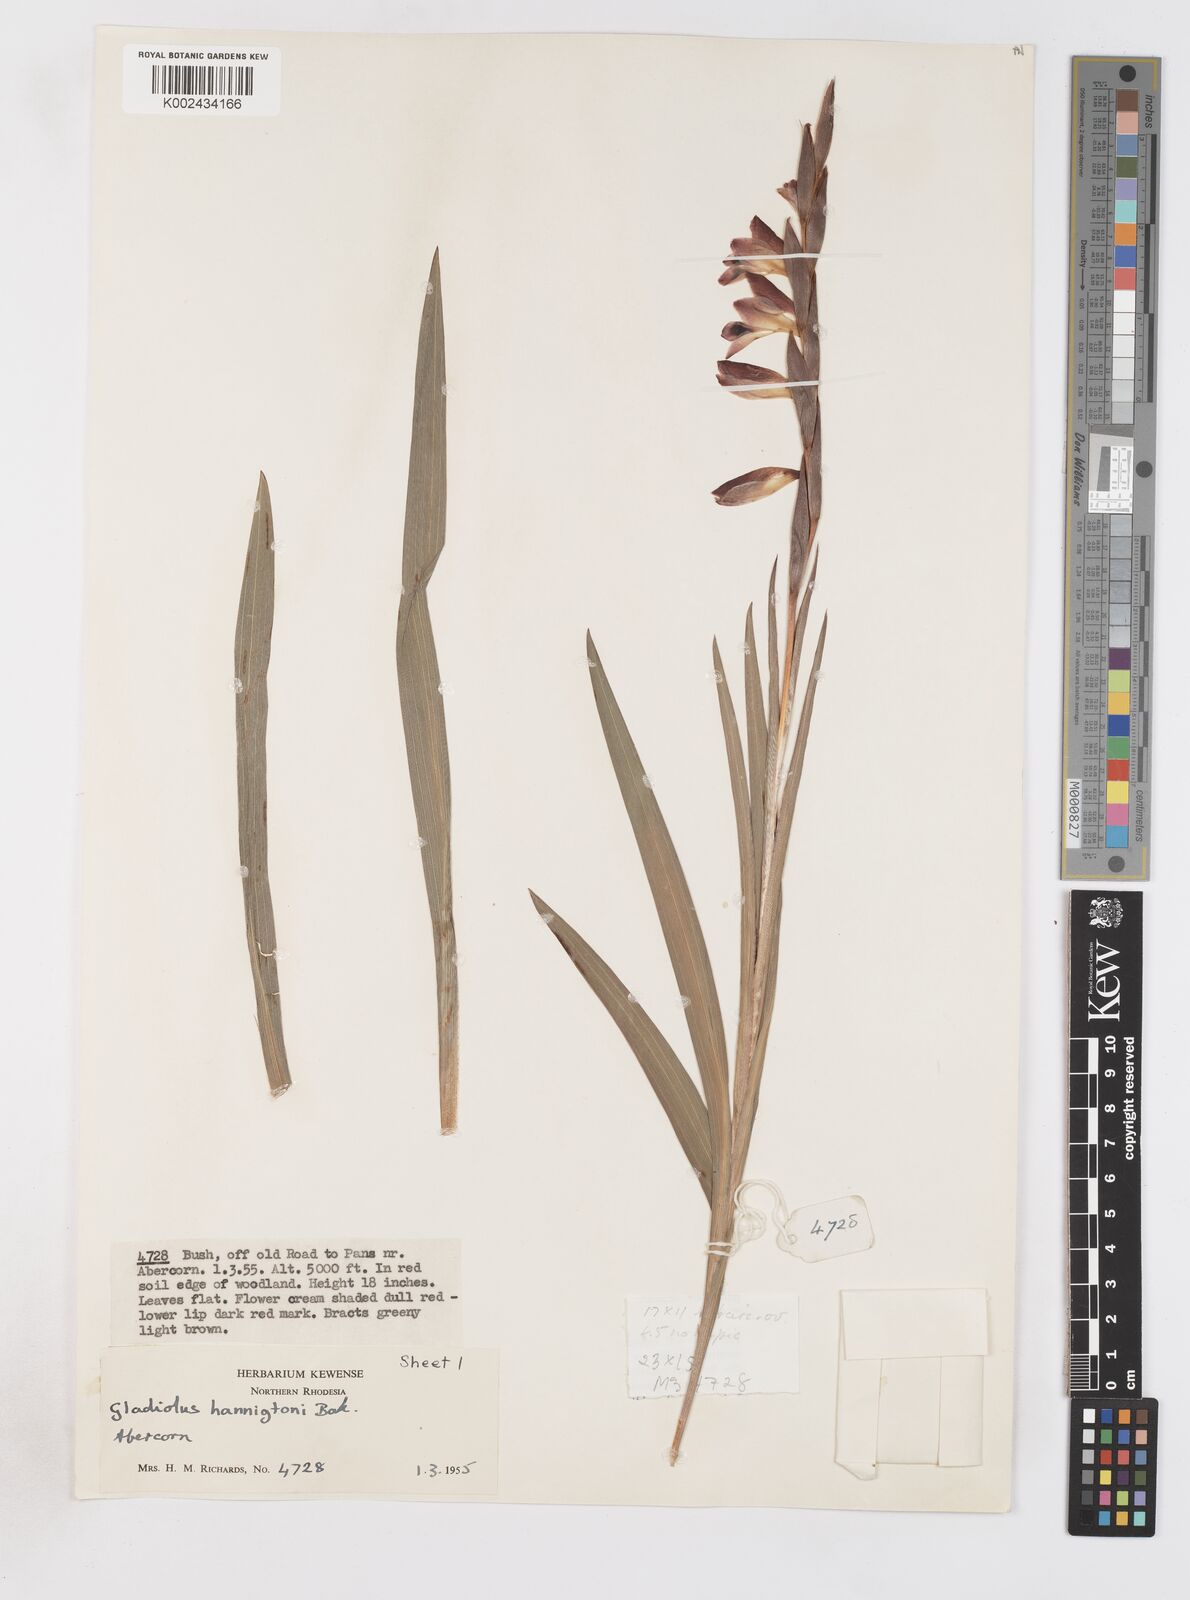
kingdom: Plantae
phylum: Tracheophyta
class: Liliopsida
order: Asparagales
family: Iridaceae
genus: Gladiolus
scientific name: Gladiolus gregarius
